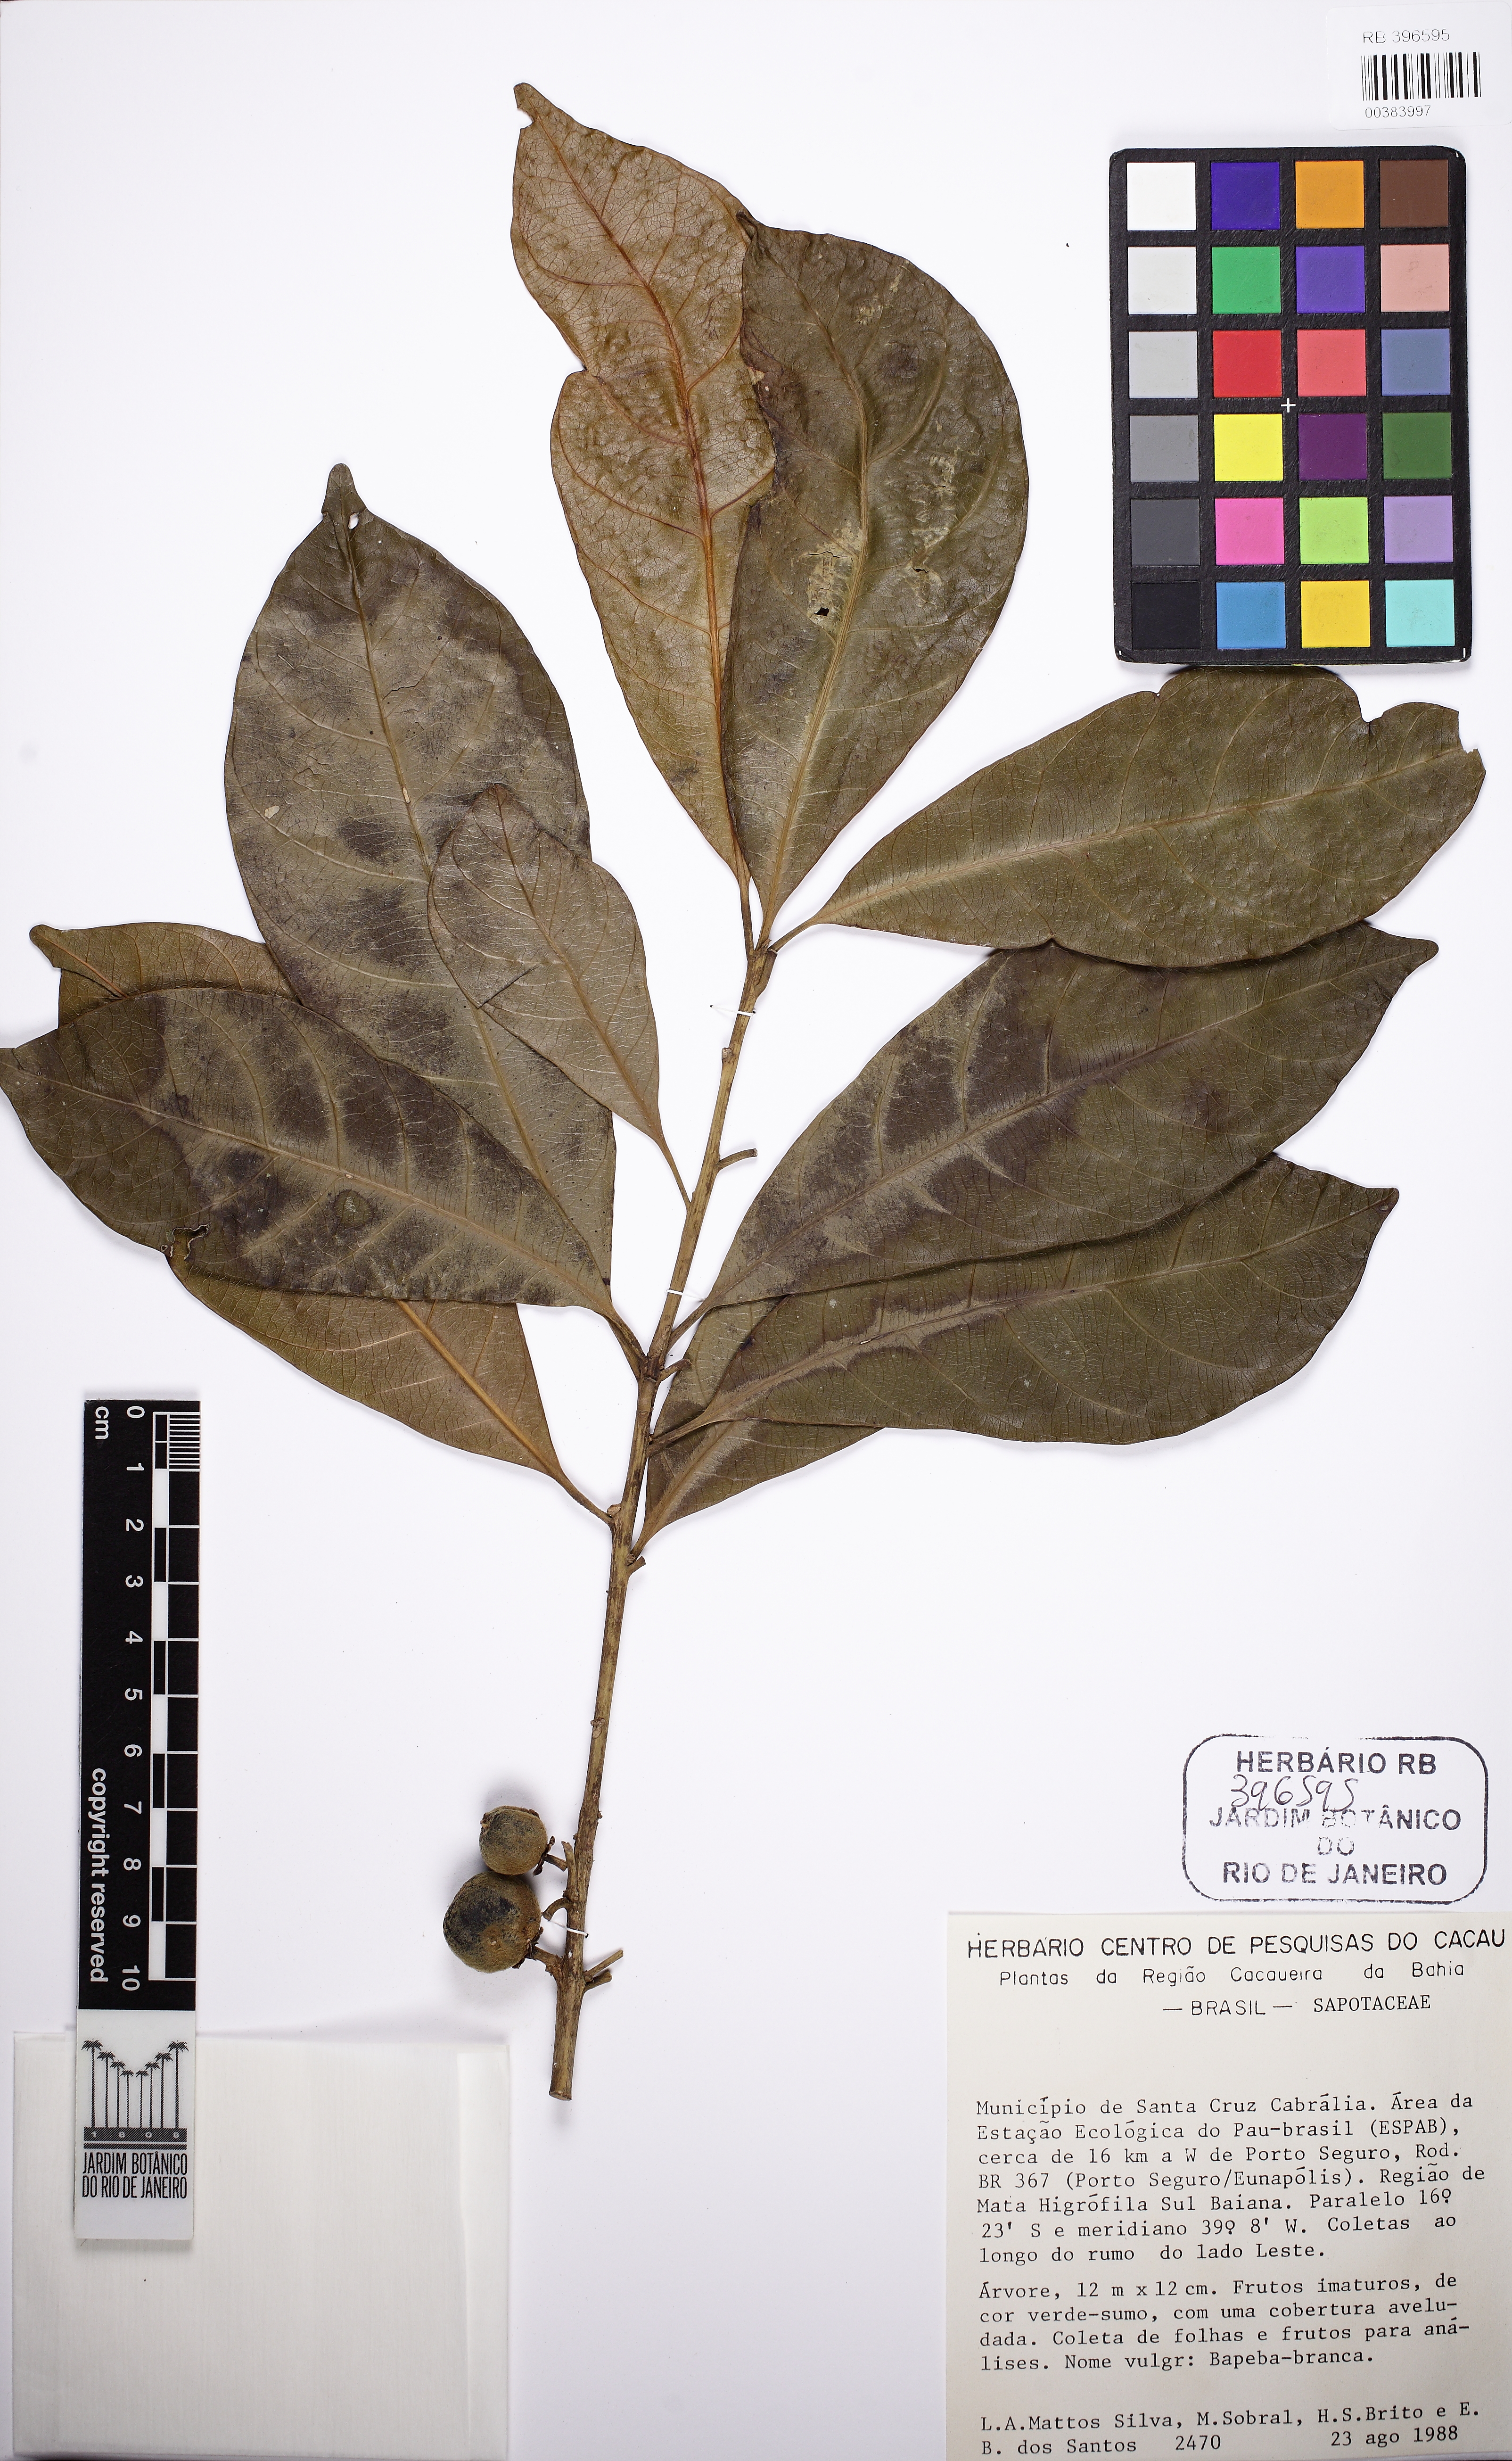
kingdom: Plantae
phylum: Tracheophyta
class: Magnoliopsida
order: Ericales
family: Sapotaceae
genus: Pouteria
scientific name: Pouteria confusa
